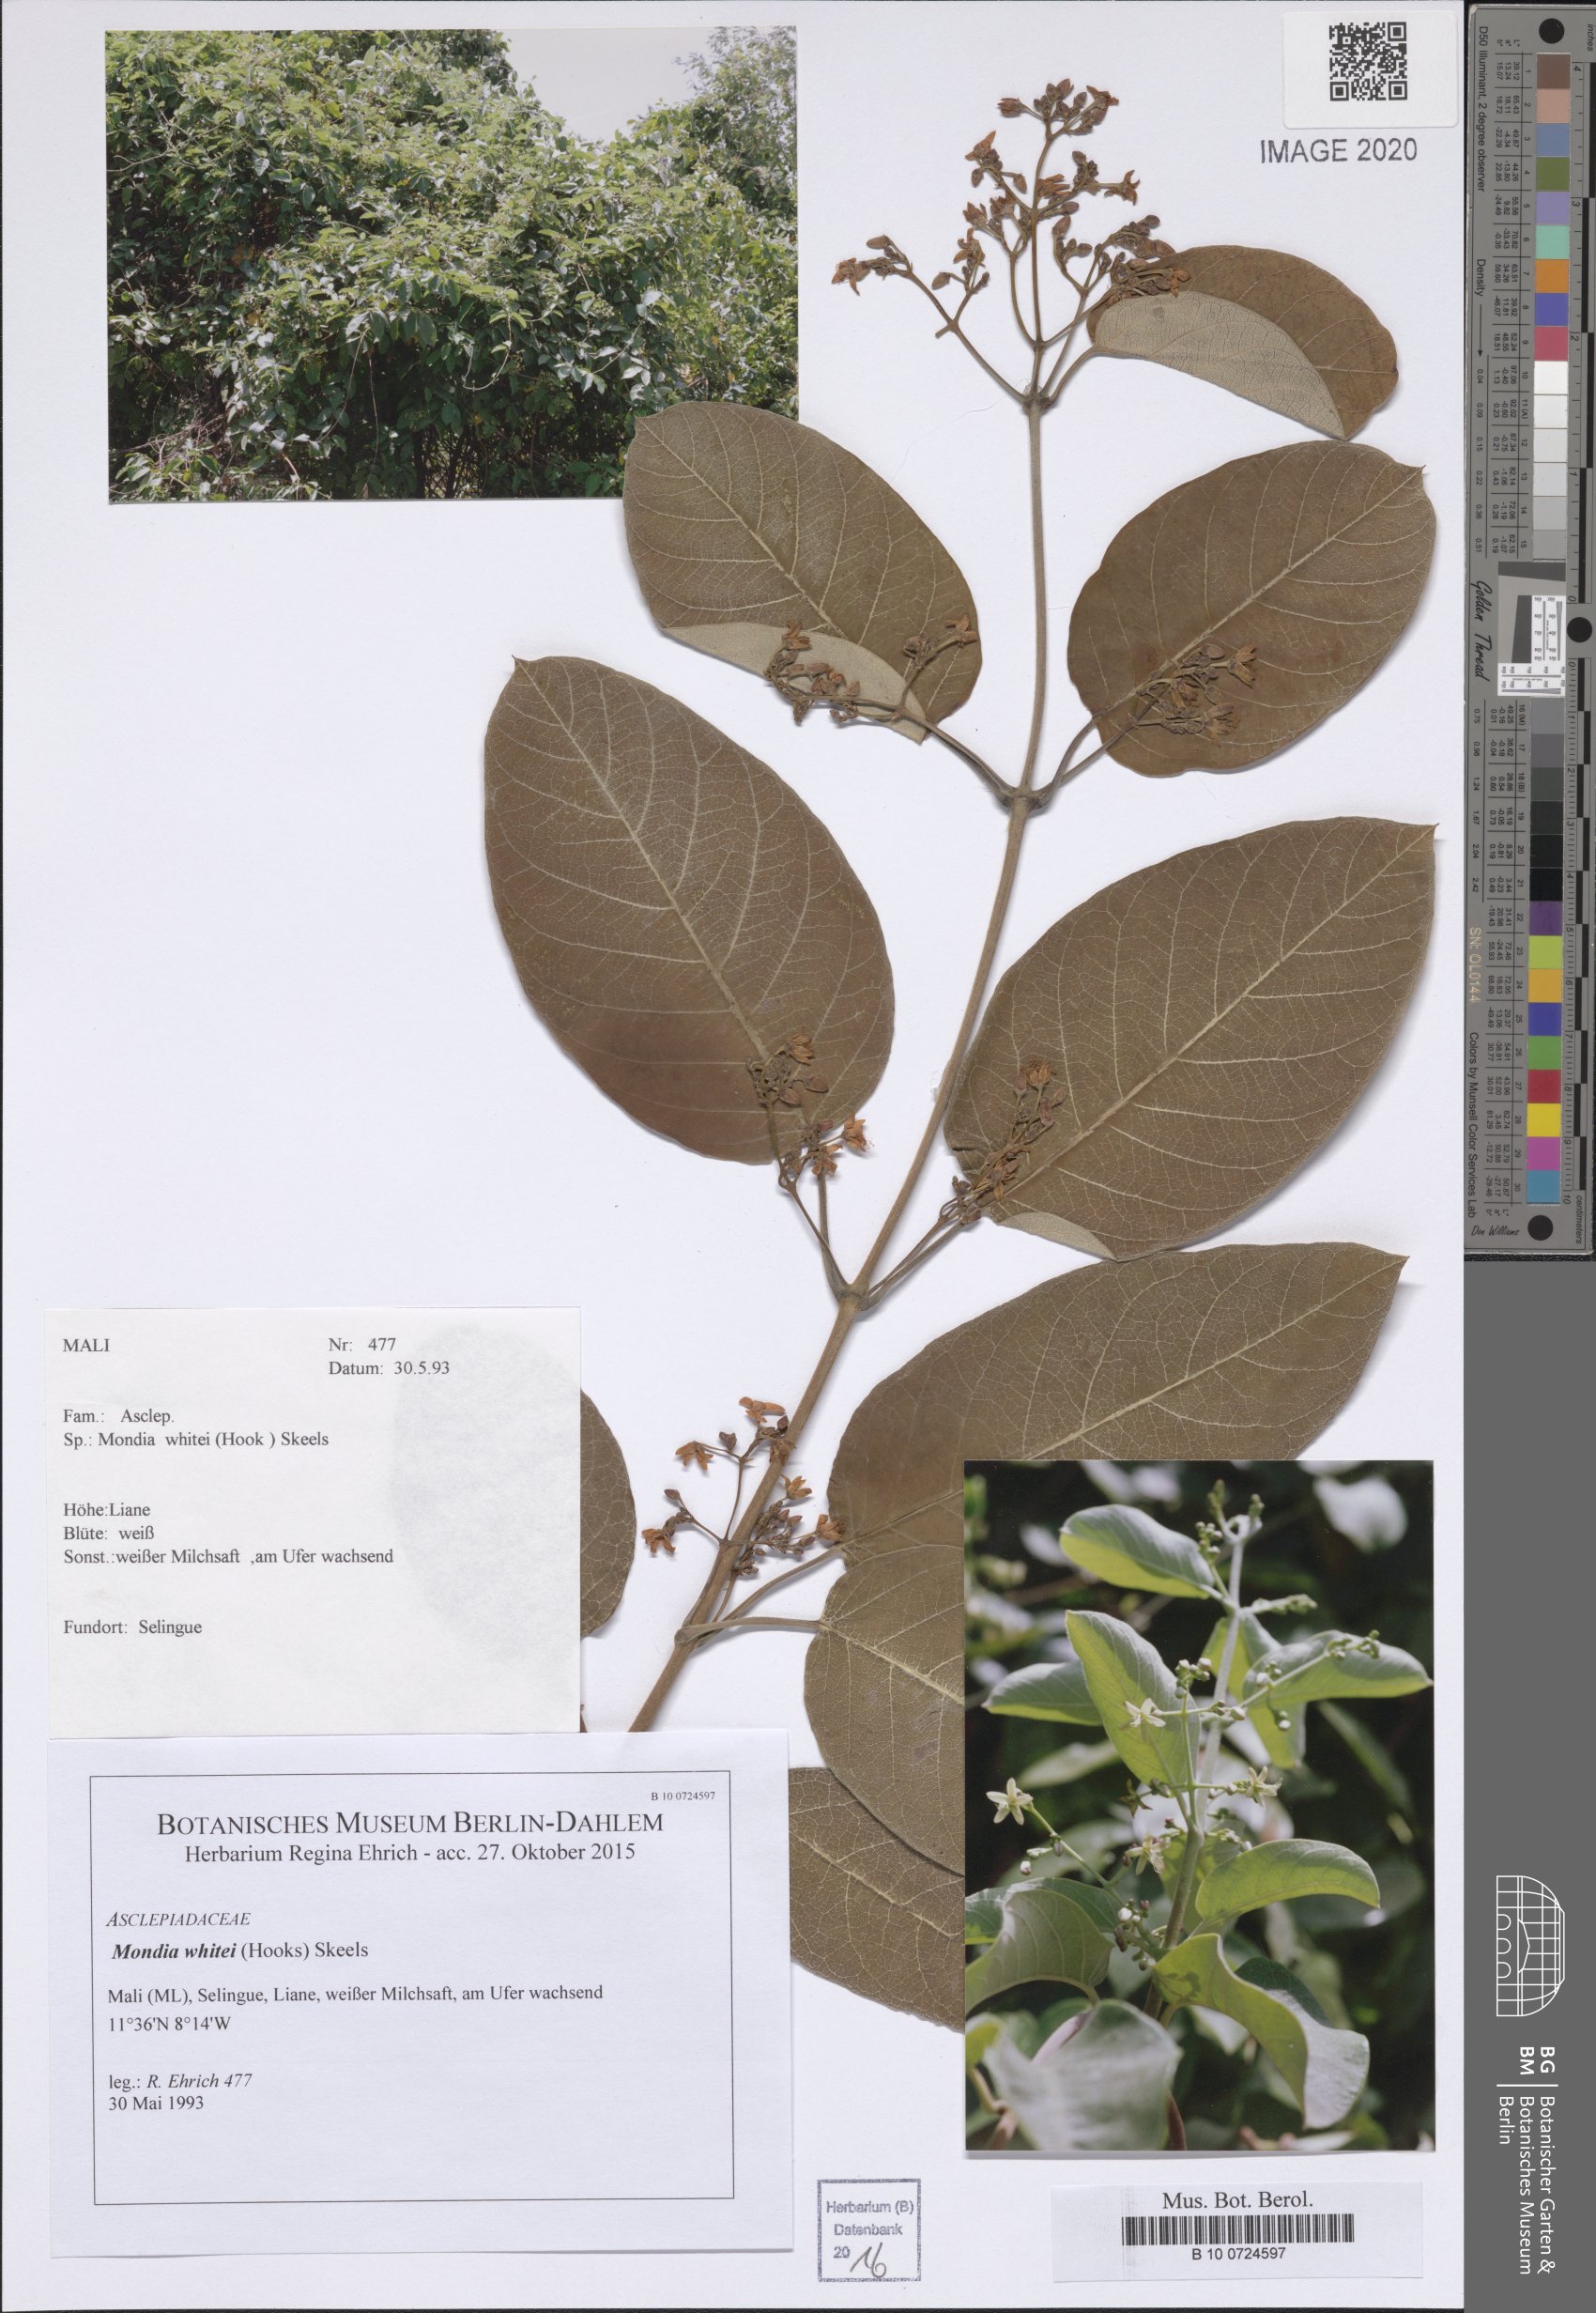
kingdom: Plantae
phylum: Tracheophyta
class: Magnoliopsida
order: Gentianales
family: Apocynaceae
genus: Mondia
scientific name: Mondia whitei
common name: Mondia
